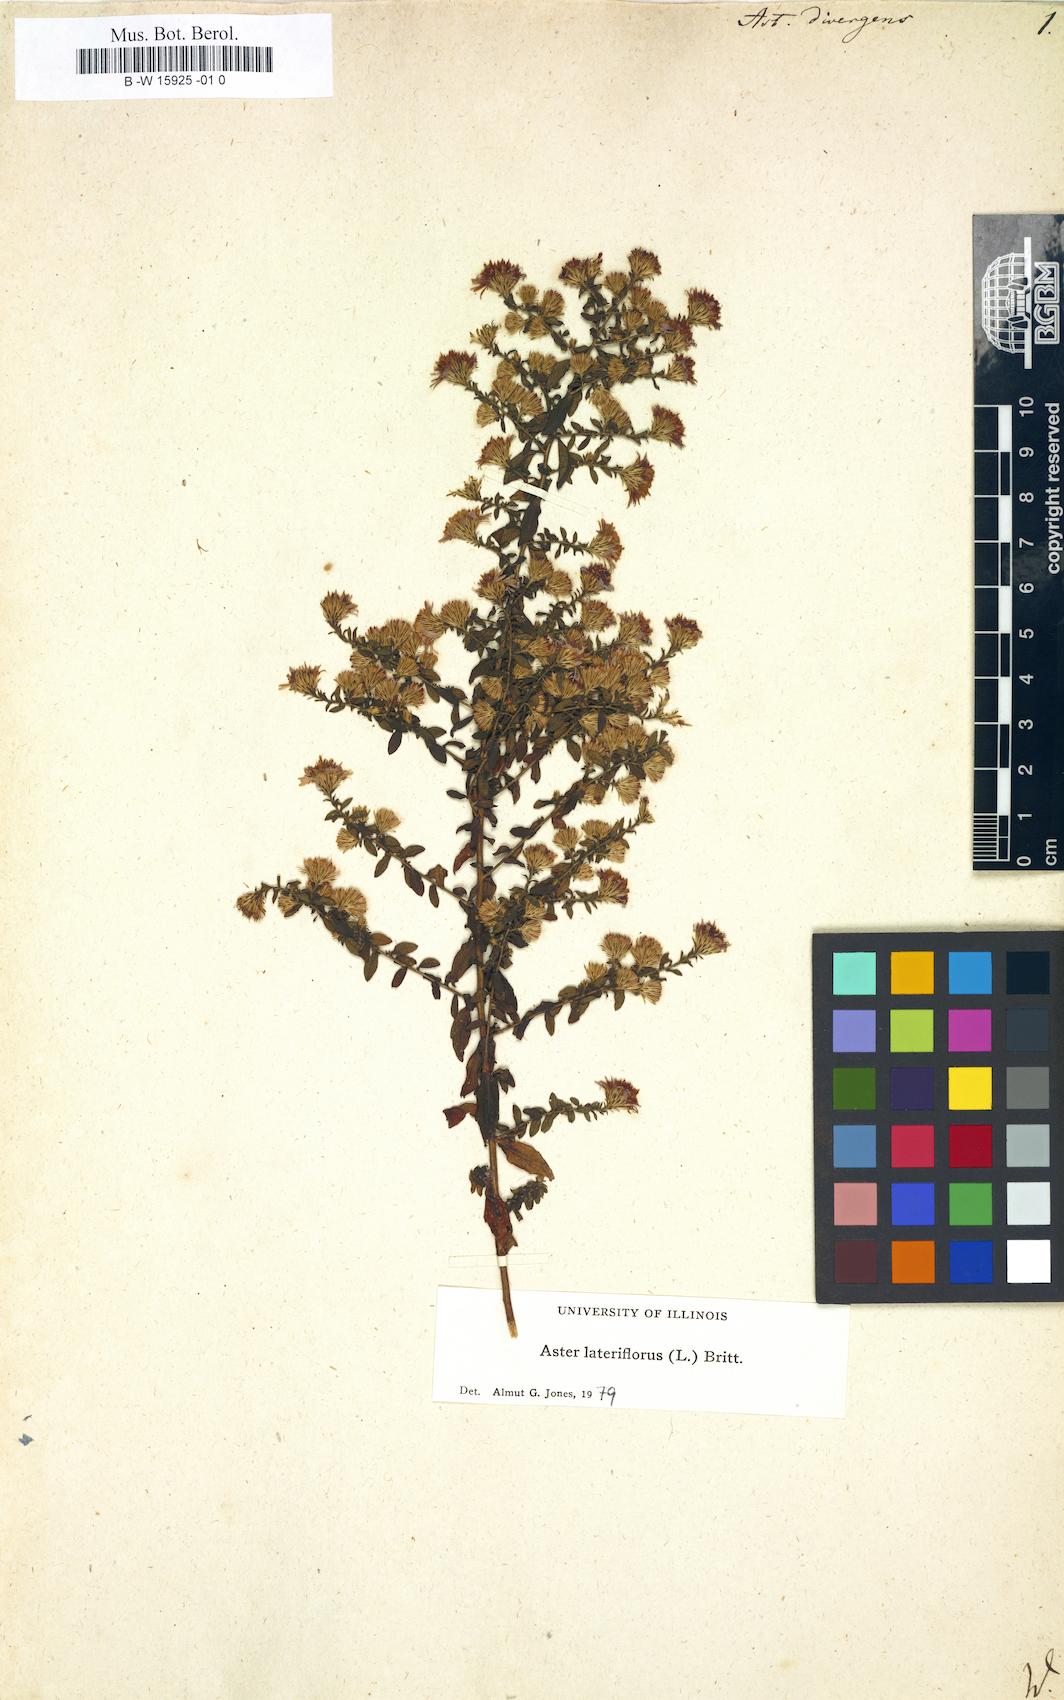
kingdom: Plantae
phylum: Tracheophyta
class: Magnoliopsida
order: Asterales
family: Asteraceae
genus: Aster
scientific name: Aster divergens
